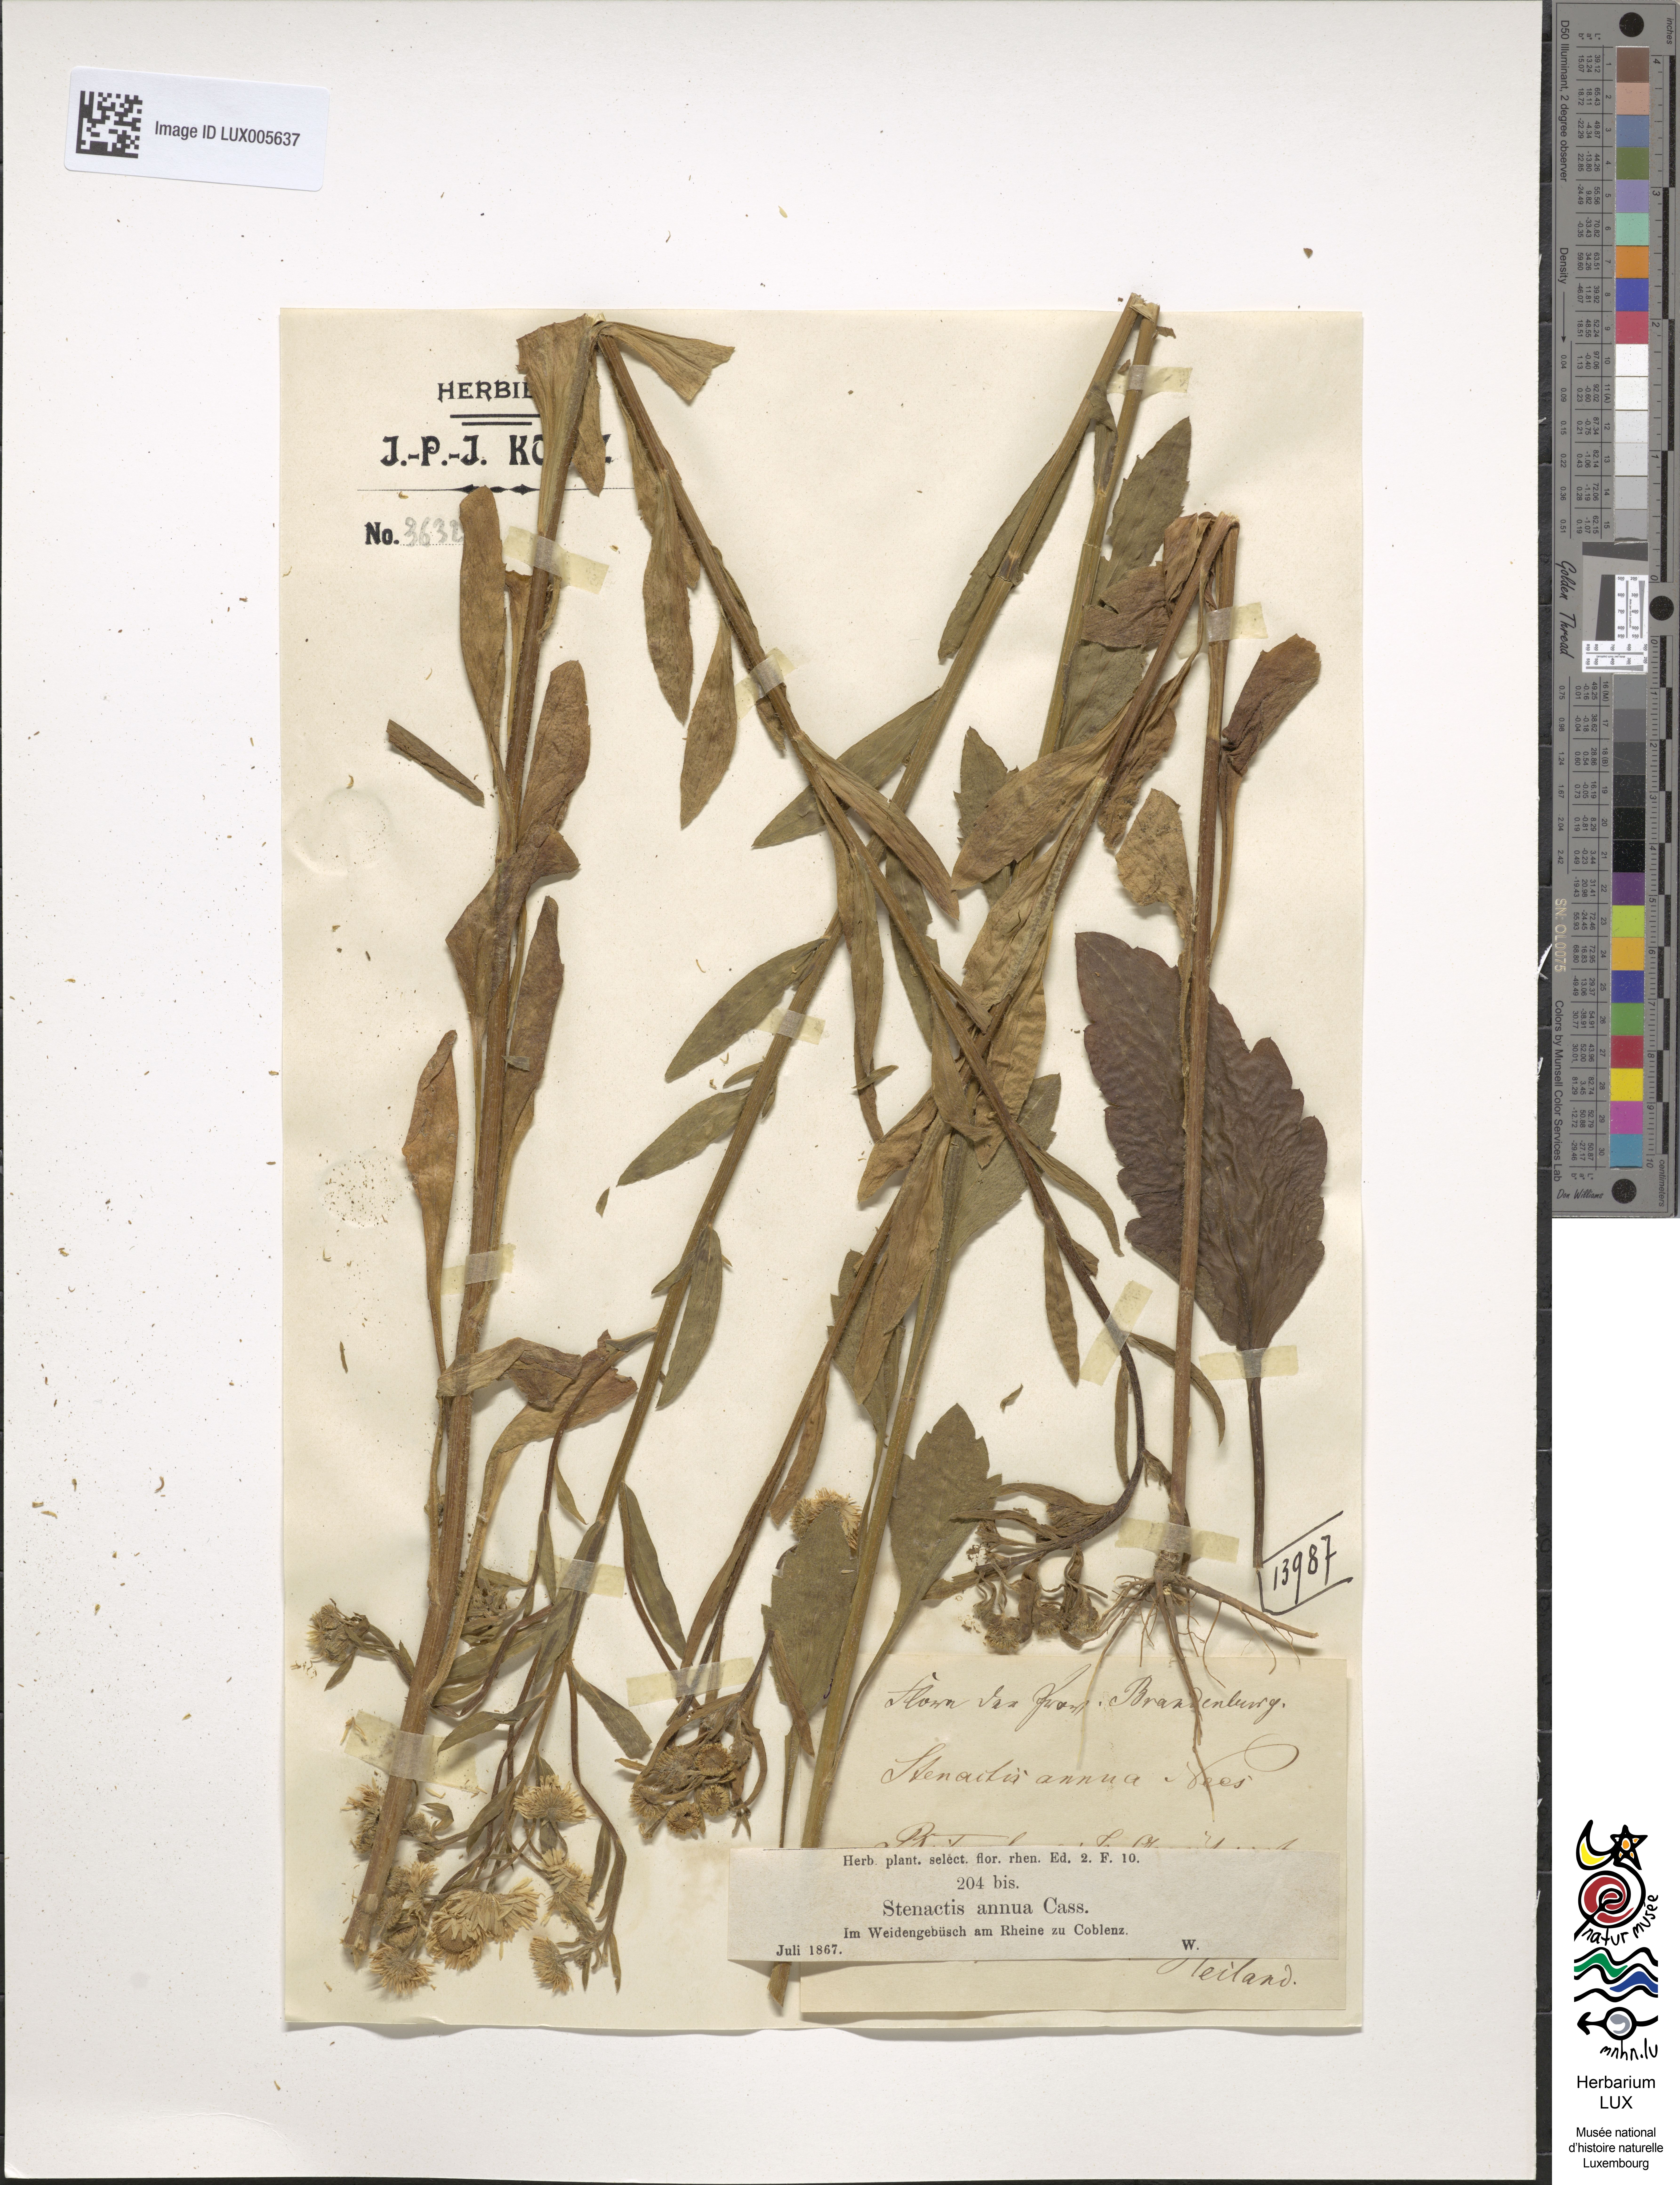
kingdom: Plantae
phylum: Tracheophyta
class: Magnoliopsida
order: Asterales
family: Asteraceae
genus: Erigeron
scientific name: Erigeron annuus
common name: Tall fleabane
